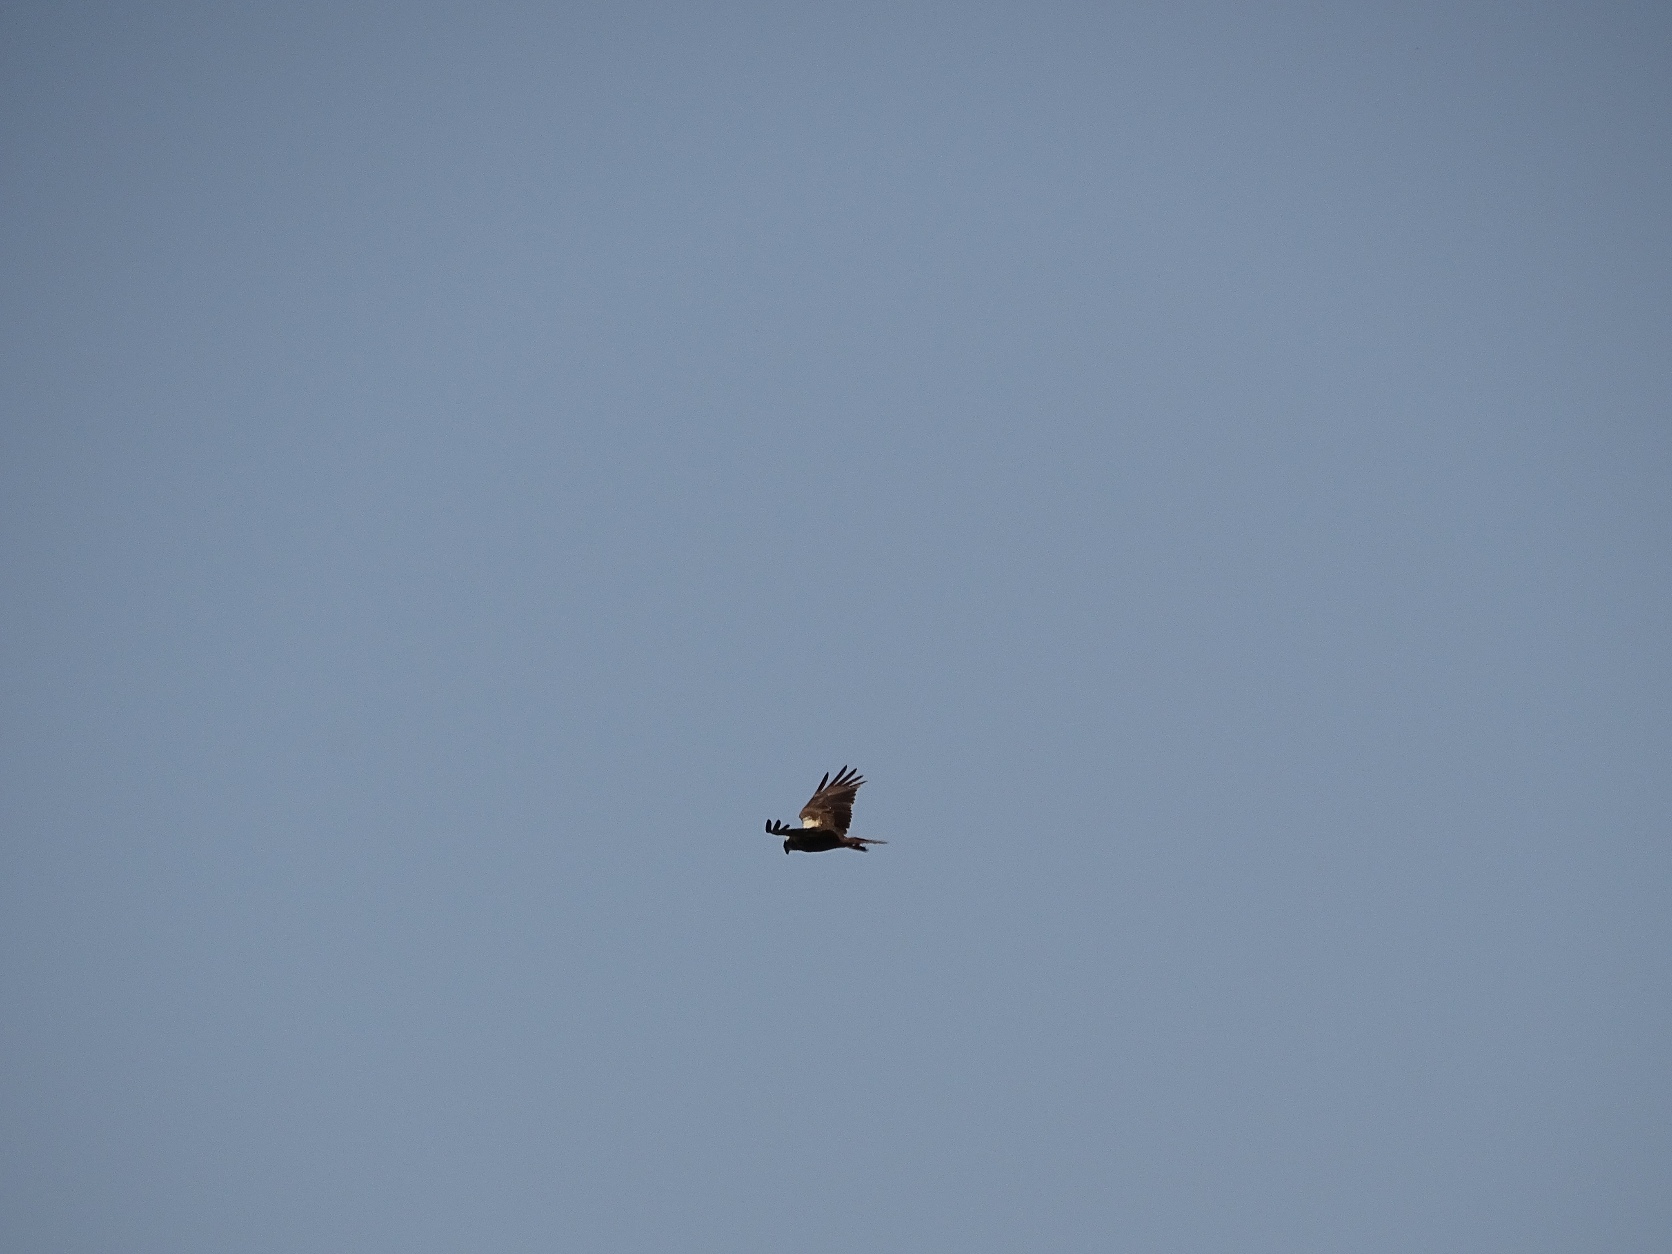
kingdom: Animalia
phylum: Chordata
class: Aves
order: Accipitriformes
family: Accipitridae
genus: Circus
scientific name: Circus aeruginosus
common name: Rørhøg
